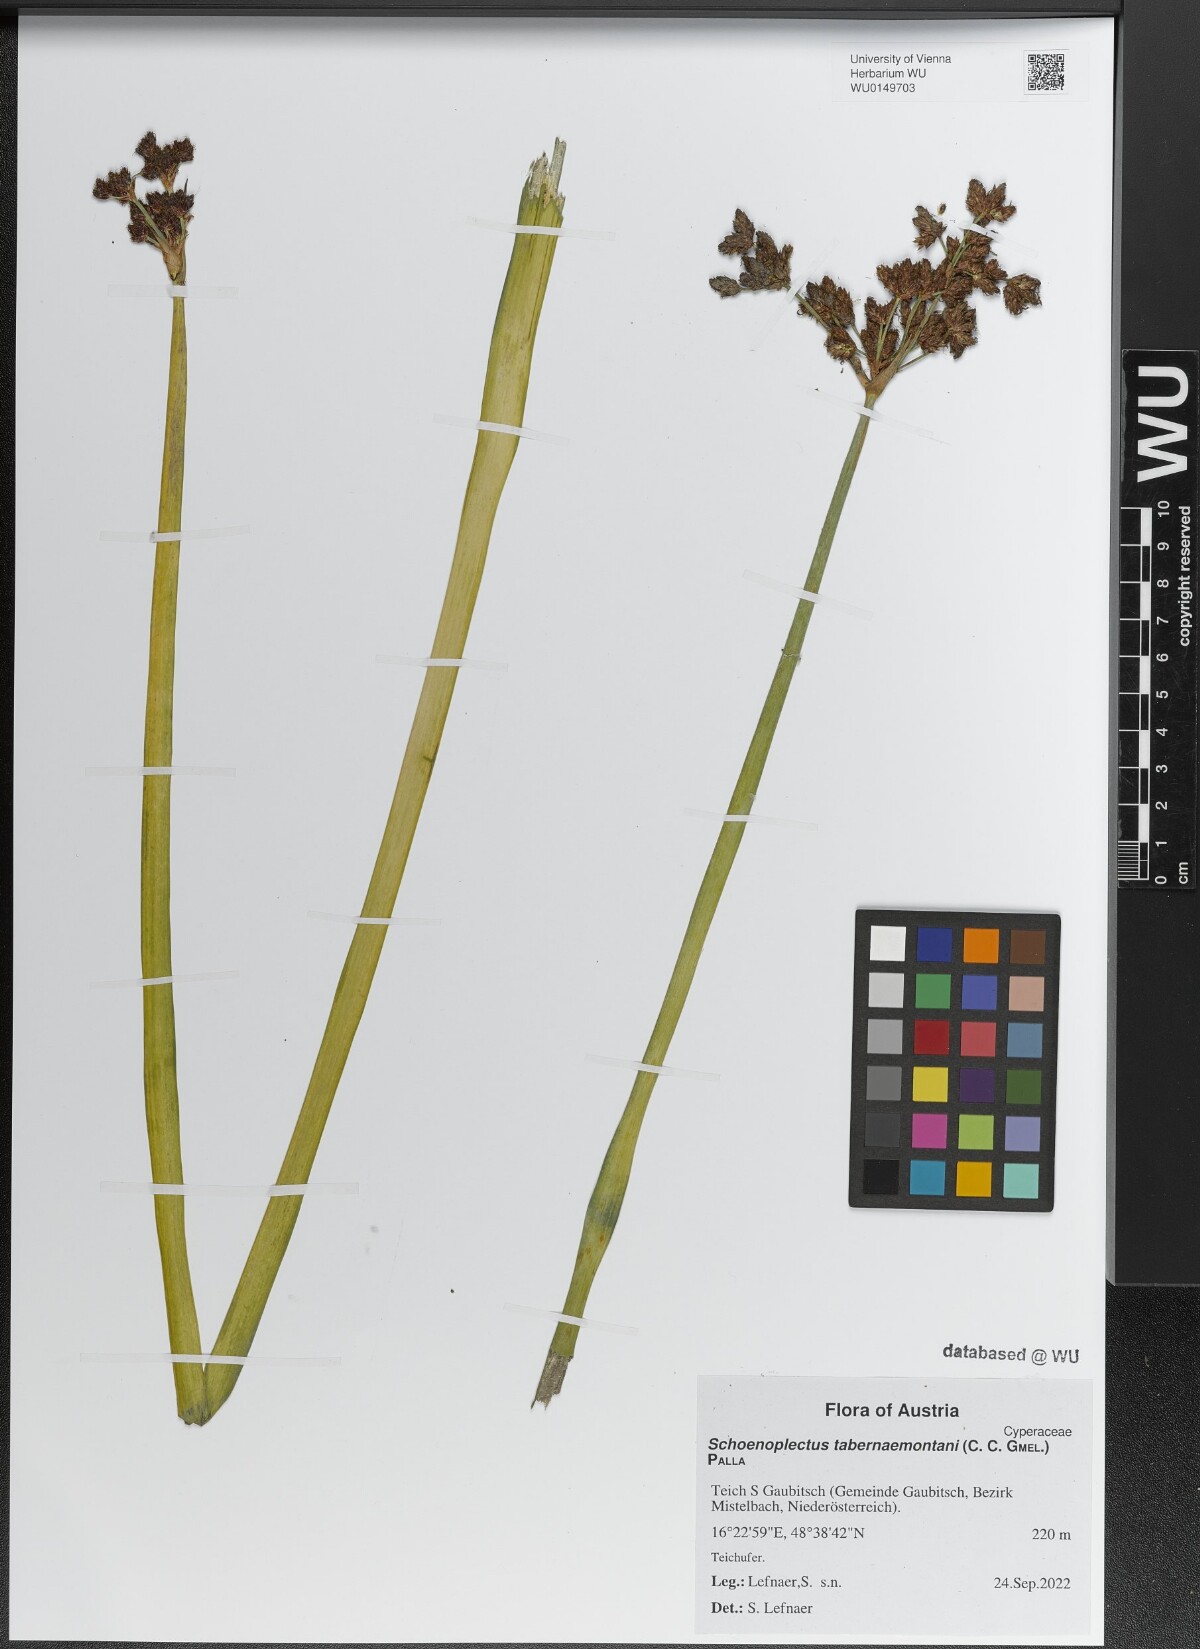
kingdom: Plantae
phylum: Tracheophyta
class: Liliopsida
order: Poales
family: Cyperaceae
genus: Schoenoplectus
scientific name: Schoenoplectus tabernaemontani
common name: Grey club-rush
